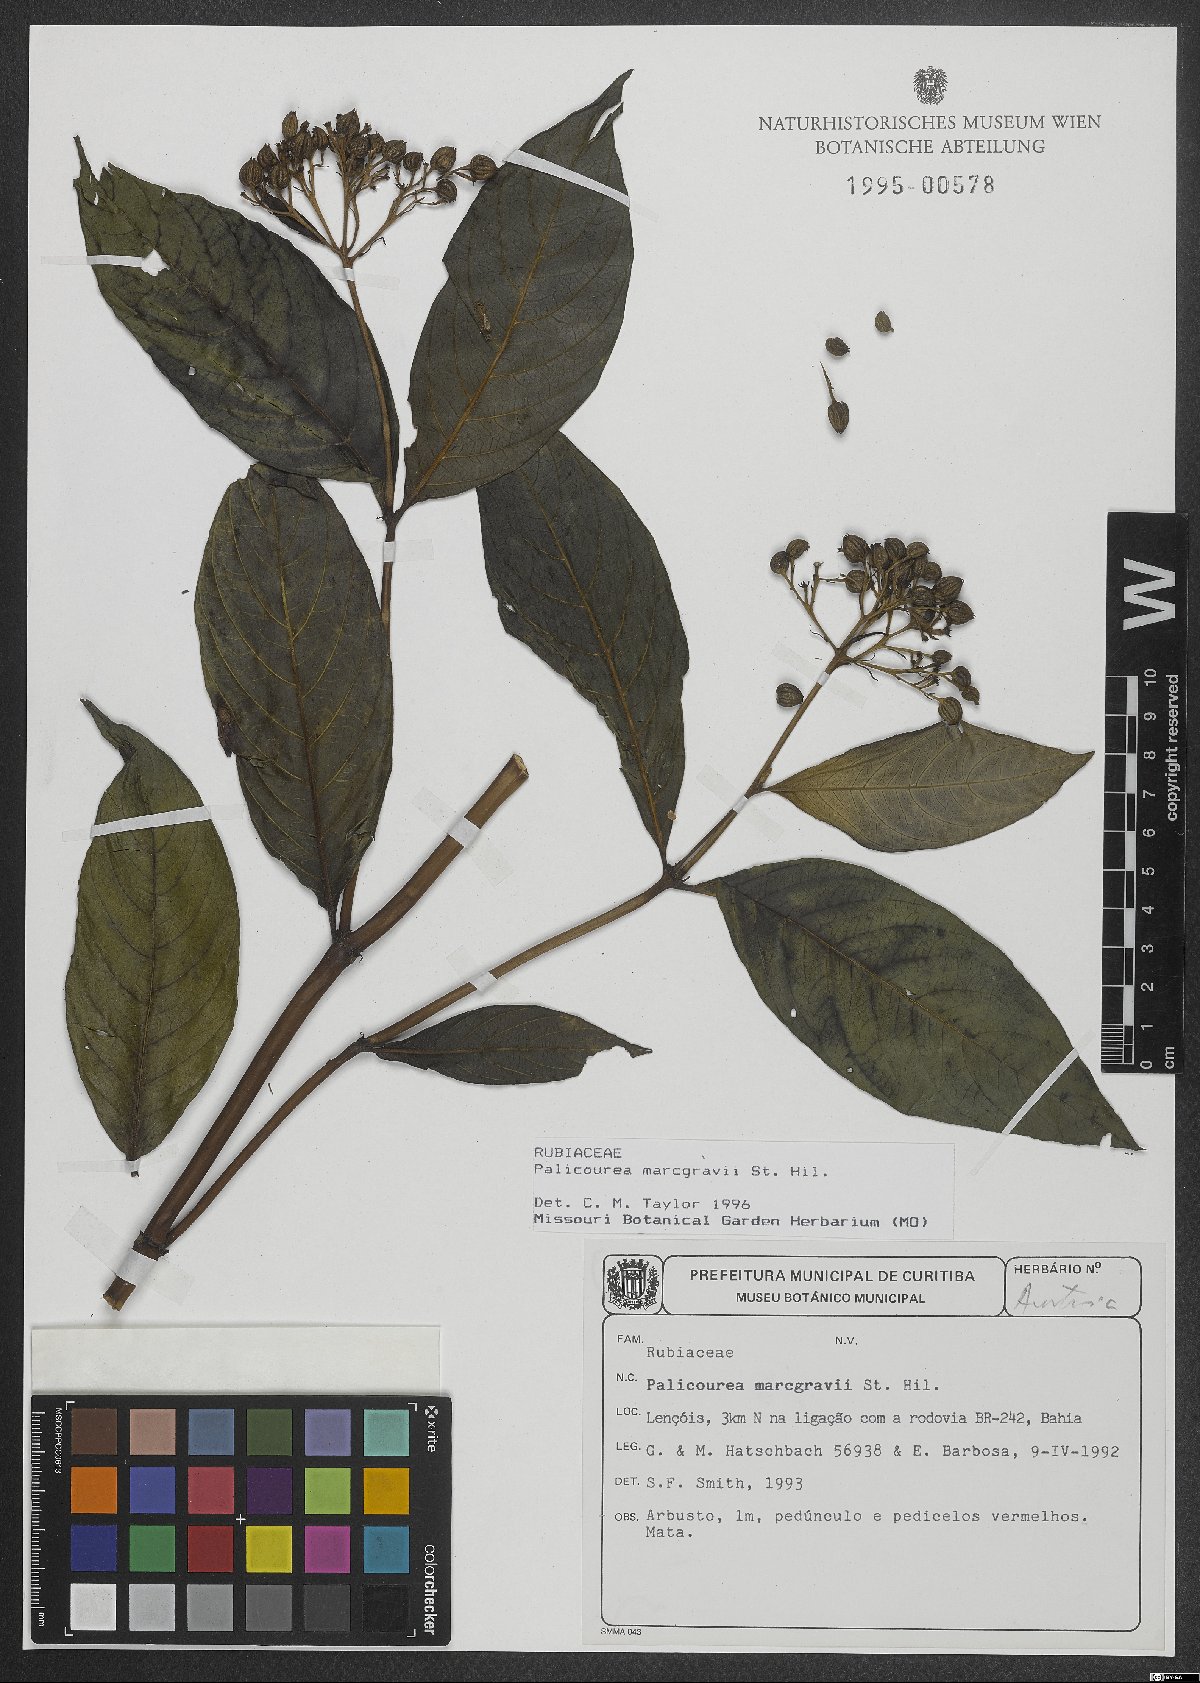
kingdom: Plantae
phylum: Tracheophyta
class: Magnoliopsida
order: Gentianales
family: Rubiaceae
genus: Palicourea
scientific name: Palicourea marcgravii
